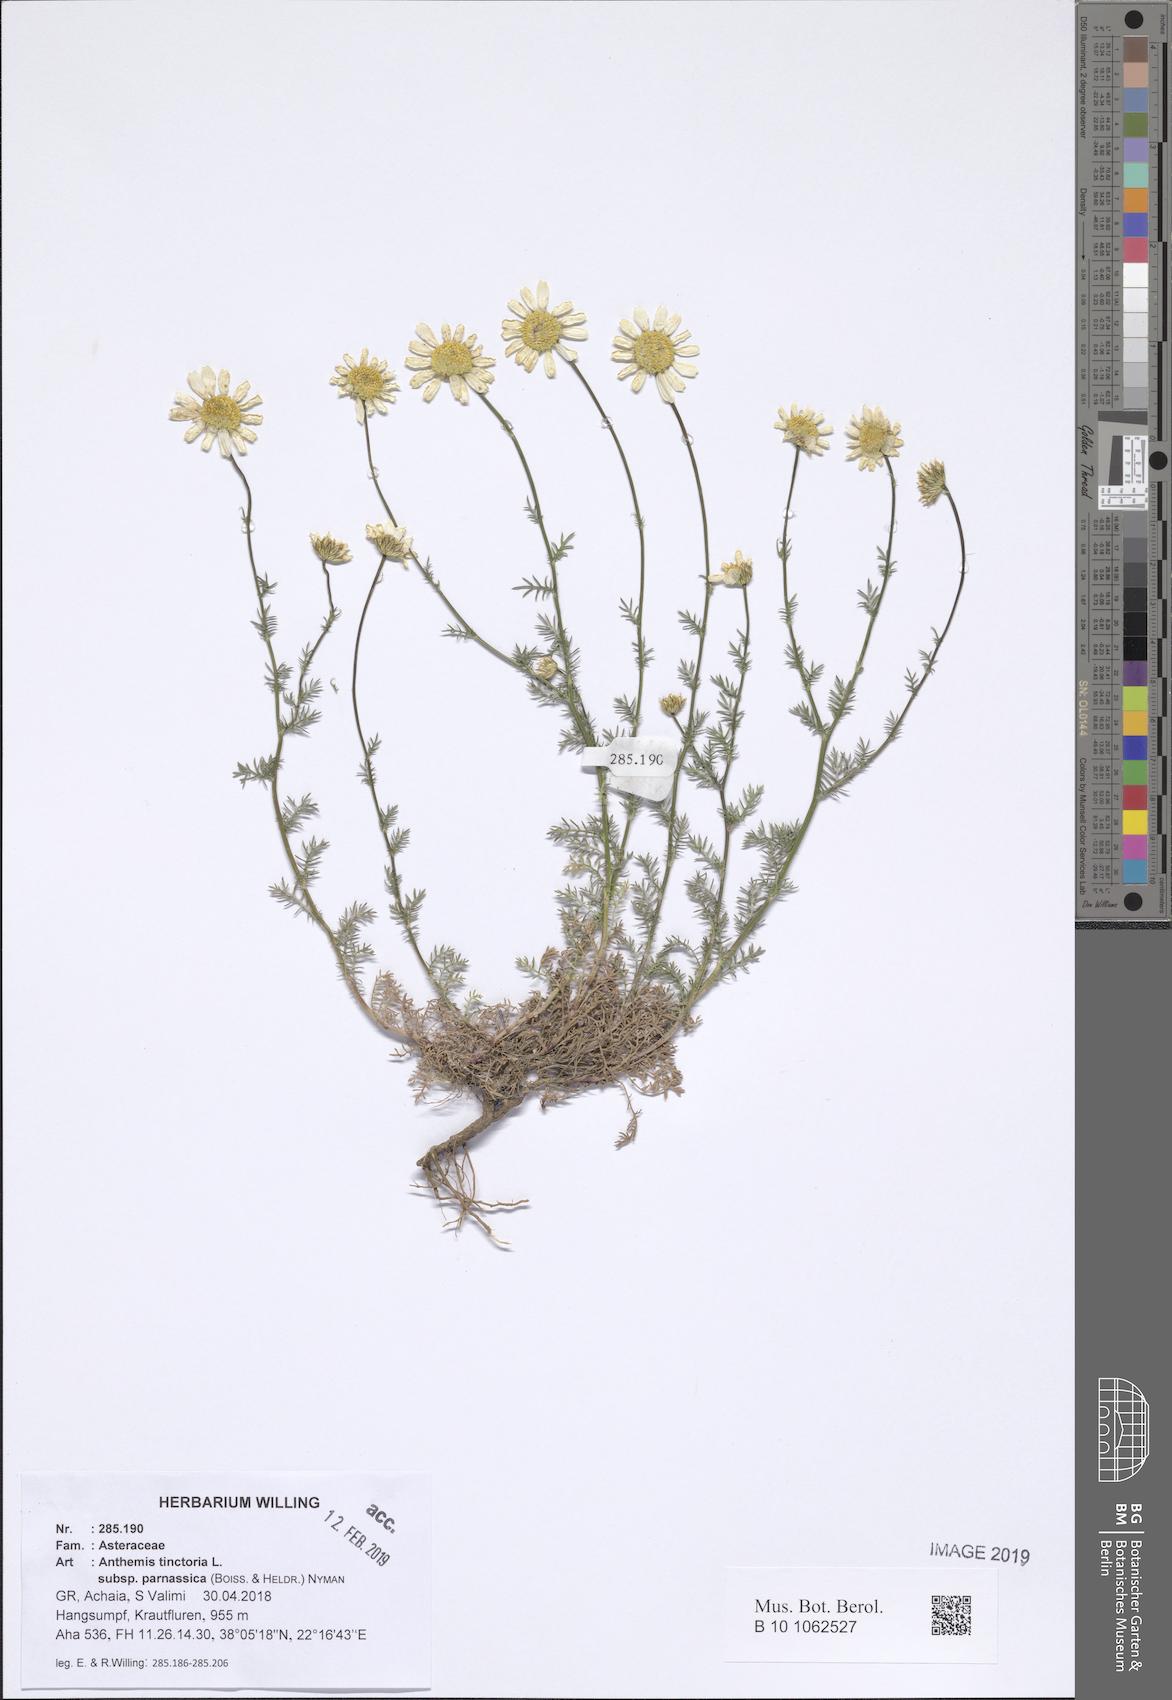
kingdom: Plantae
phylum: Tracheophyta
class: Magnoliopsida
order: Asterales
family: Asteraceae
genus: Cota
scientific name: Cota tinctoria
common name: Golden chamomile
